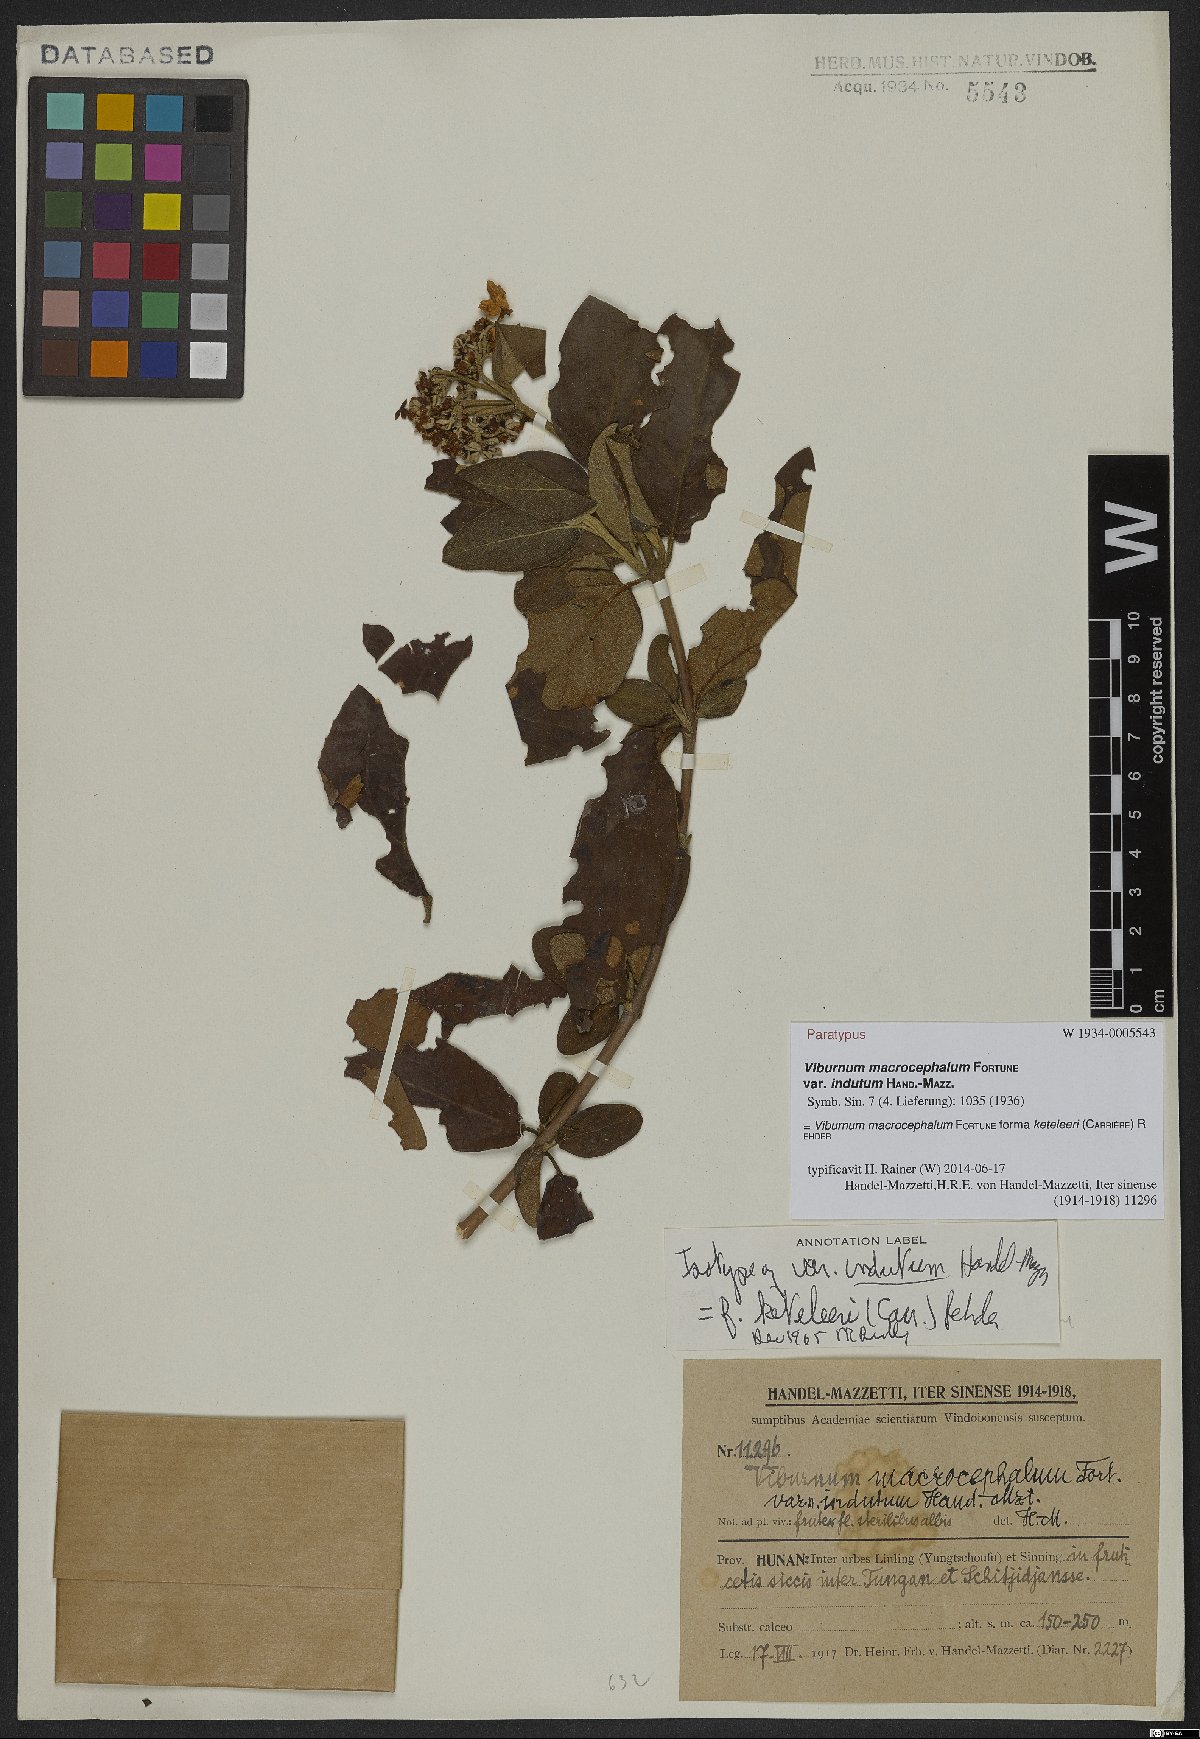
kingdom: Plantae
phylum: Tracheophyta
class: Magnoliopsida
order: Dipsacales
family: Viburnaceae
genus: Viburnum
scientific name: Viburnum macrocephalum
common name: Chinese snowball viburnum
